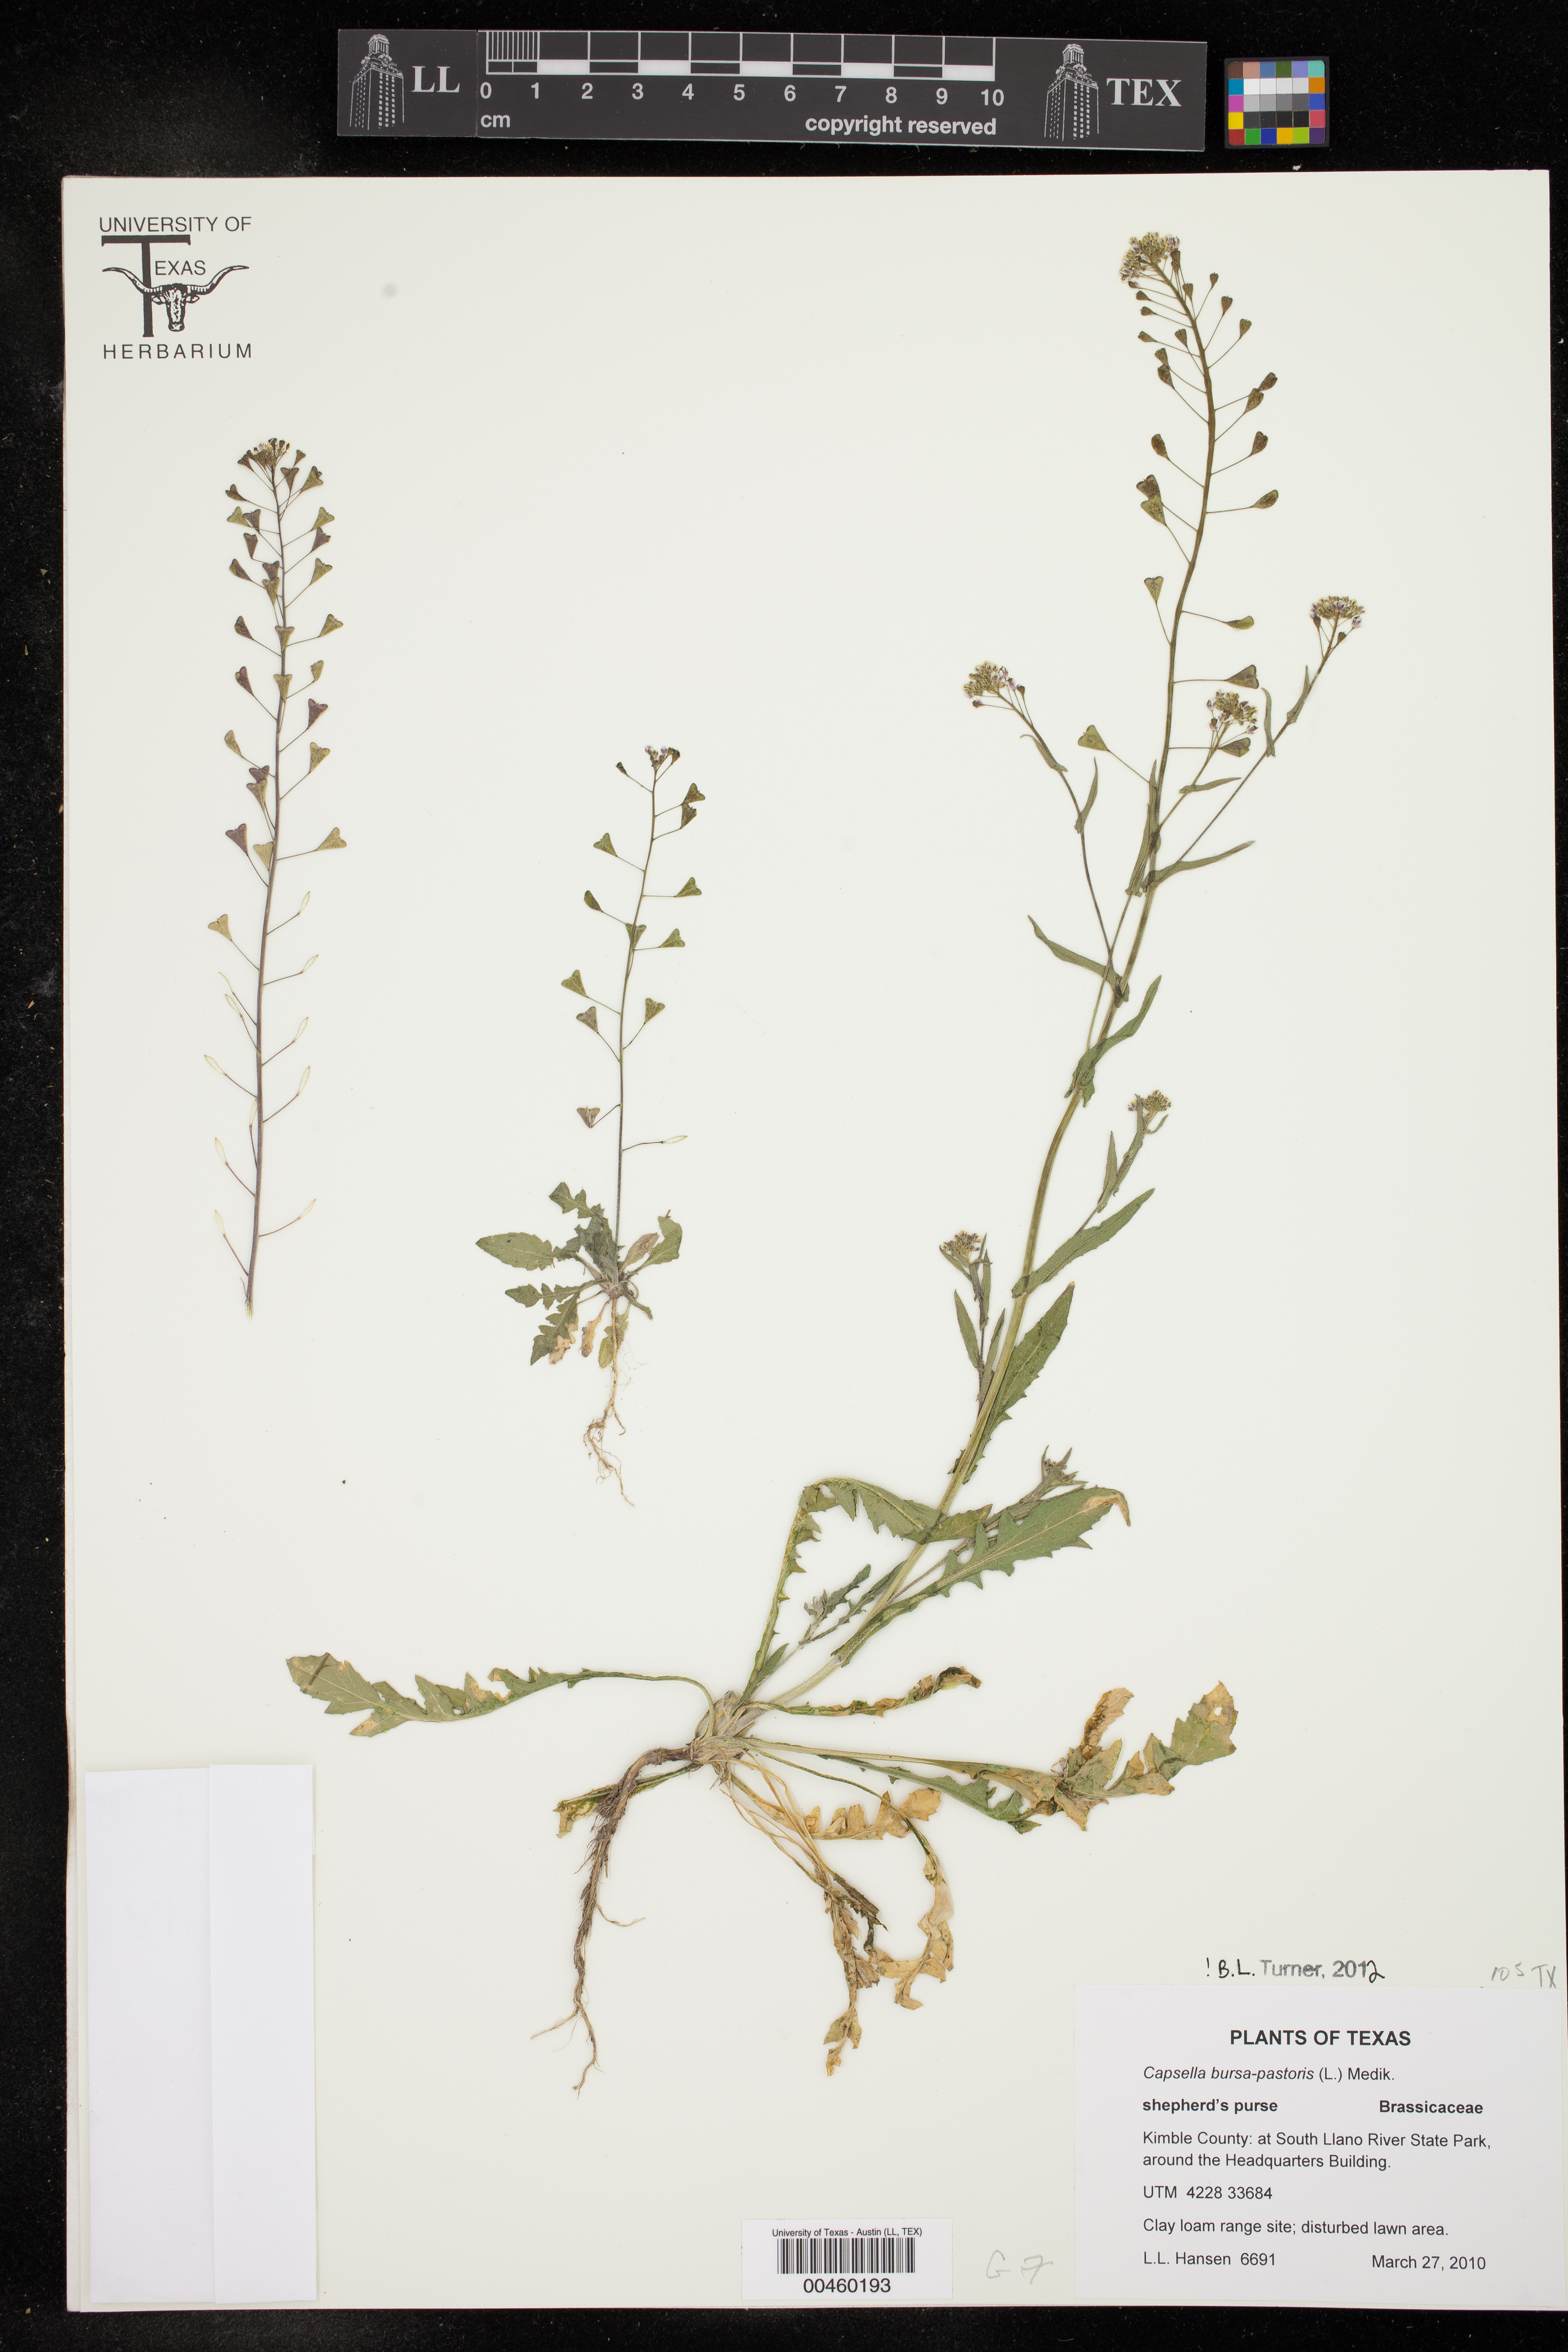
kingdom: Plantae
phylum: Tracheophyta
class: Magnoliopsida
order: Brassicales
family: Brassicaceae
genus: Capsella
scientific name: Capsella bursa-pastoris
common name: Shepherd's purse
